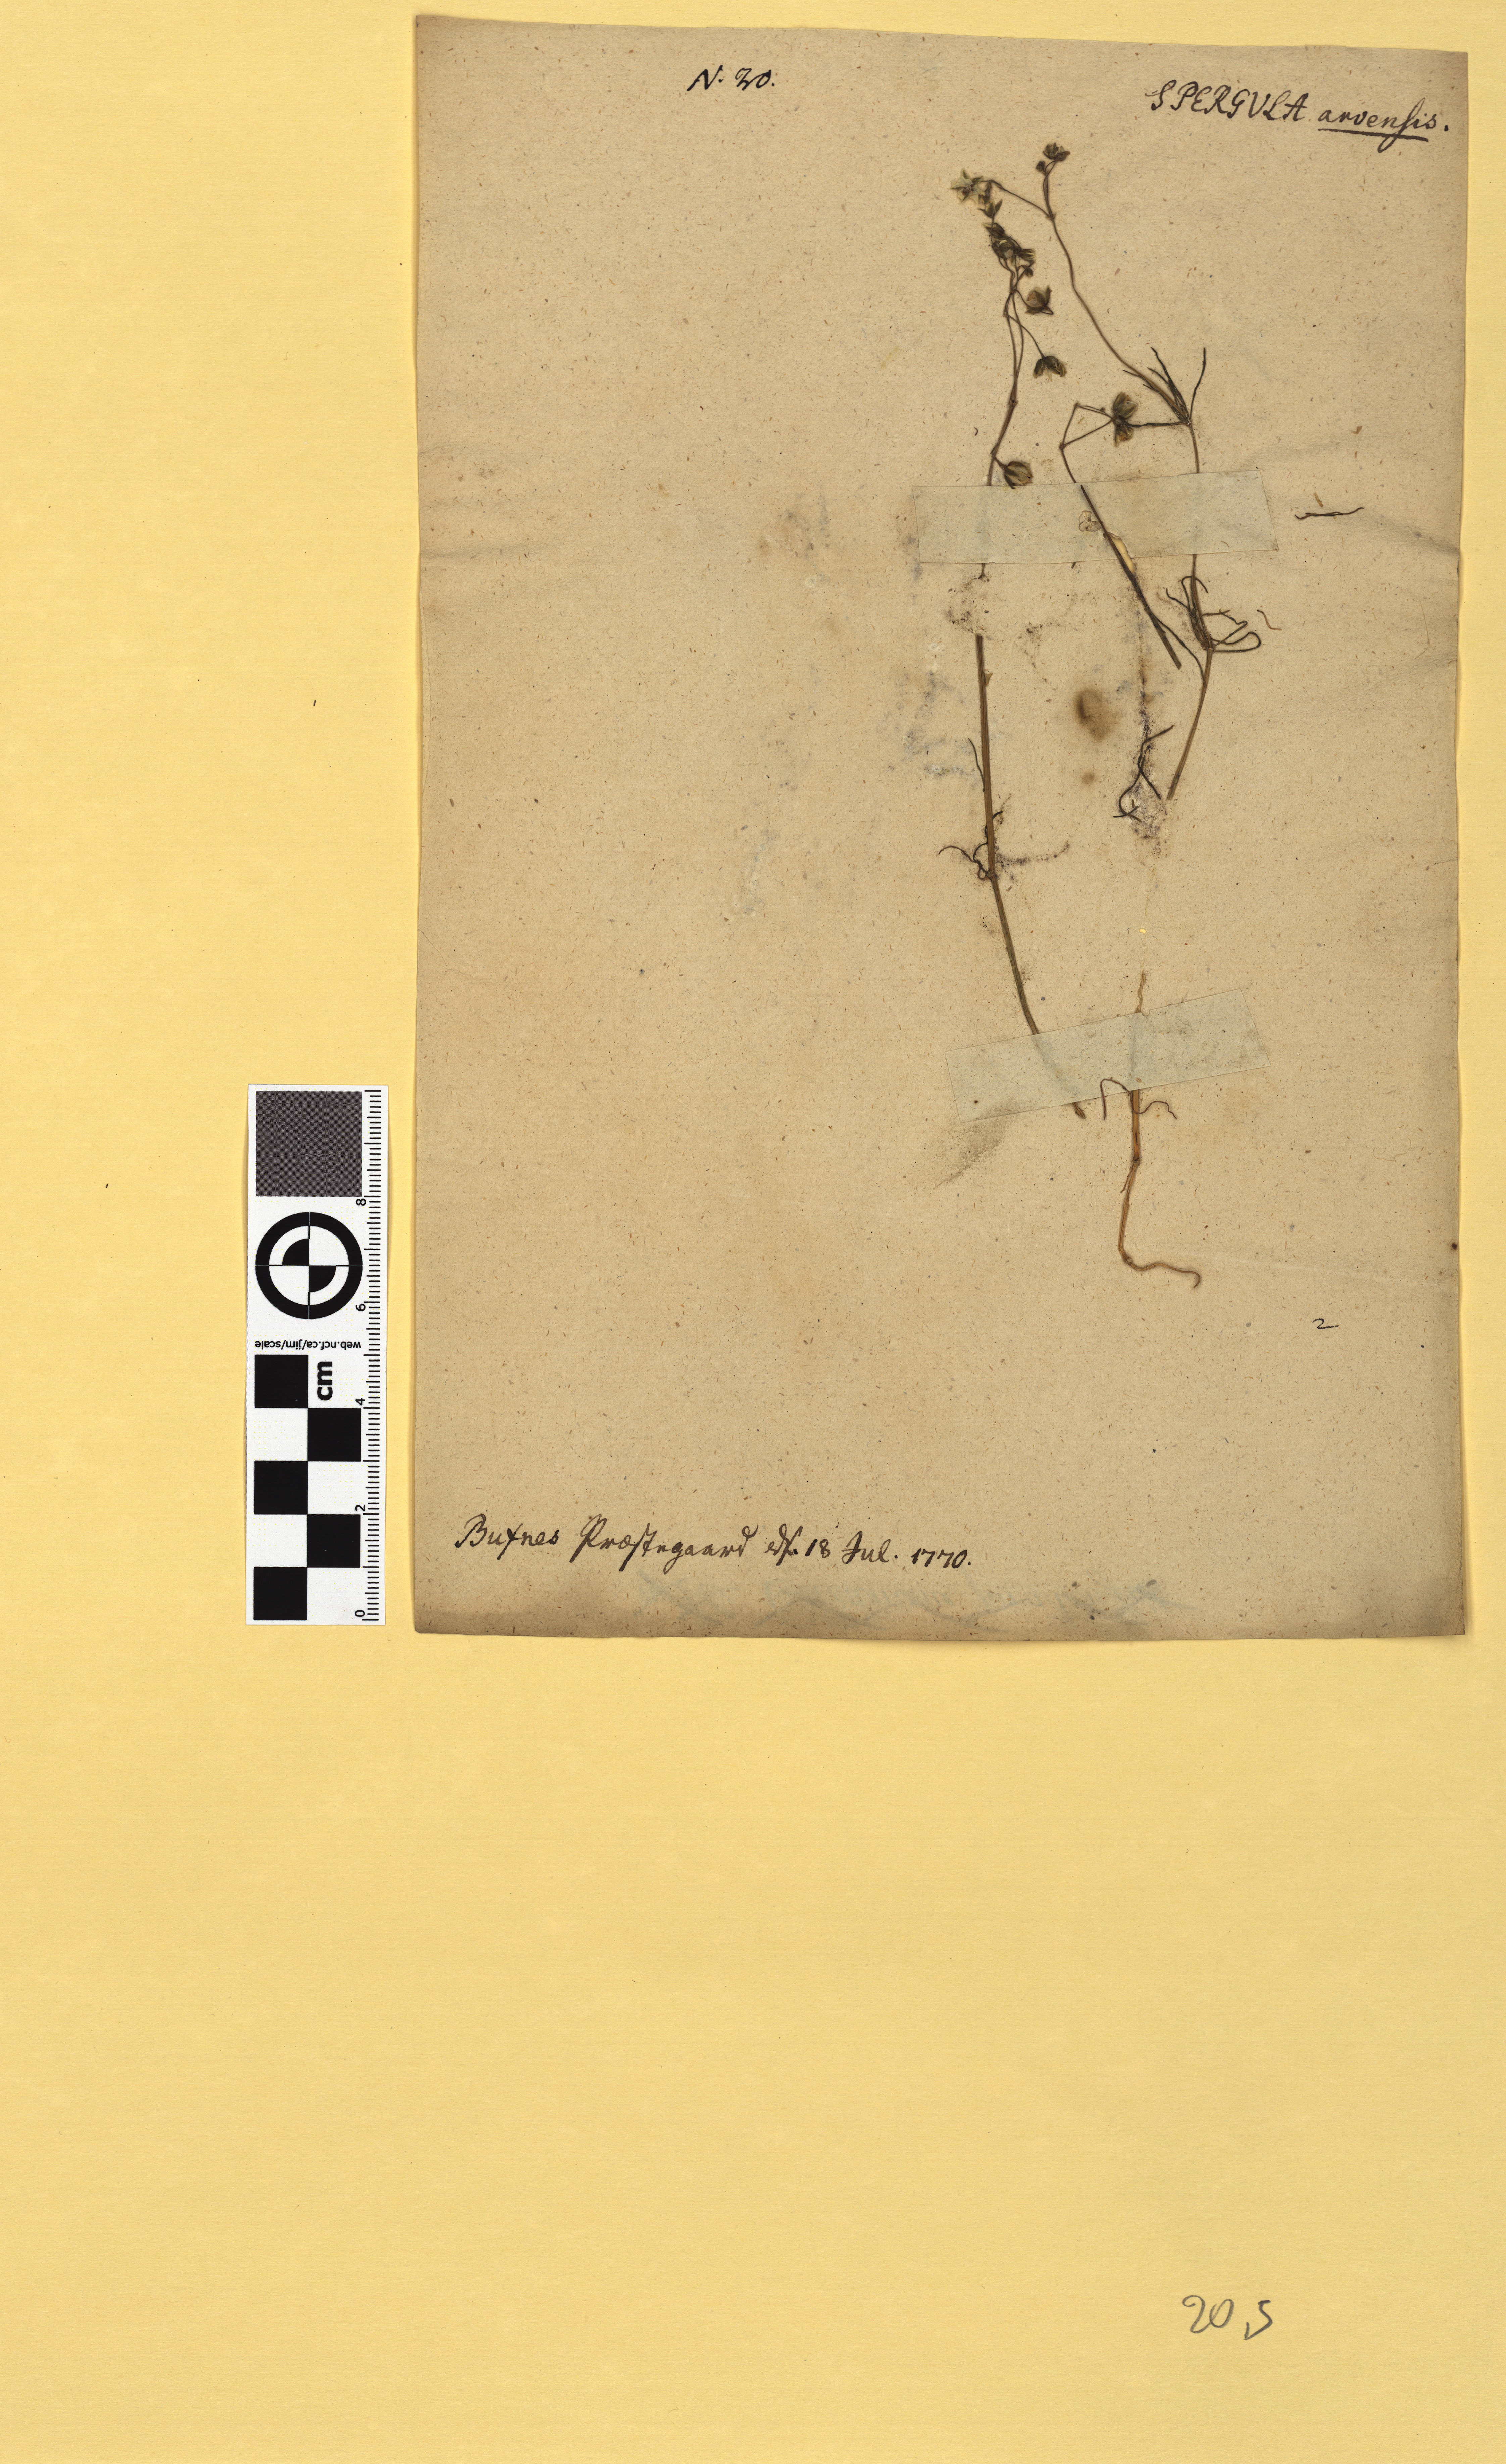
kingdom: Plantae
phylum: Tracheophyta
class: Magnoliopsida
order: Caryophyllales
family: Caryophyllaceae
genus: Spergula
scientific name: Spergula arvensis
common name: Corn spurrey
